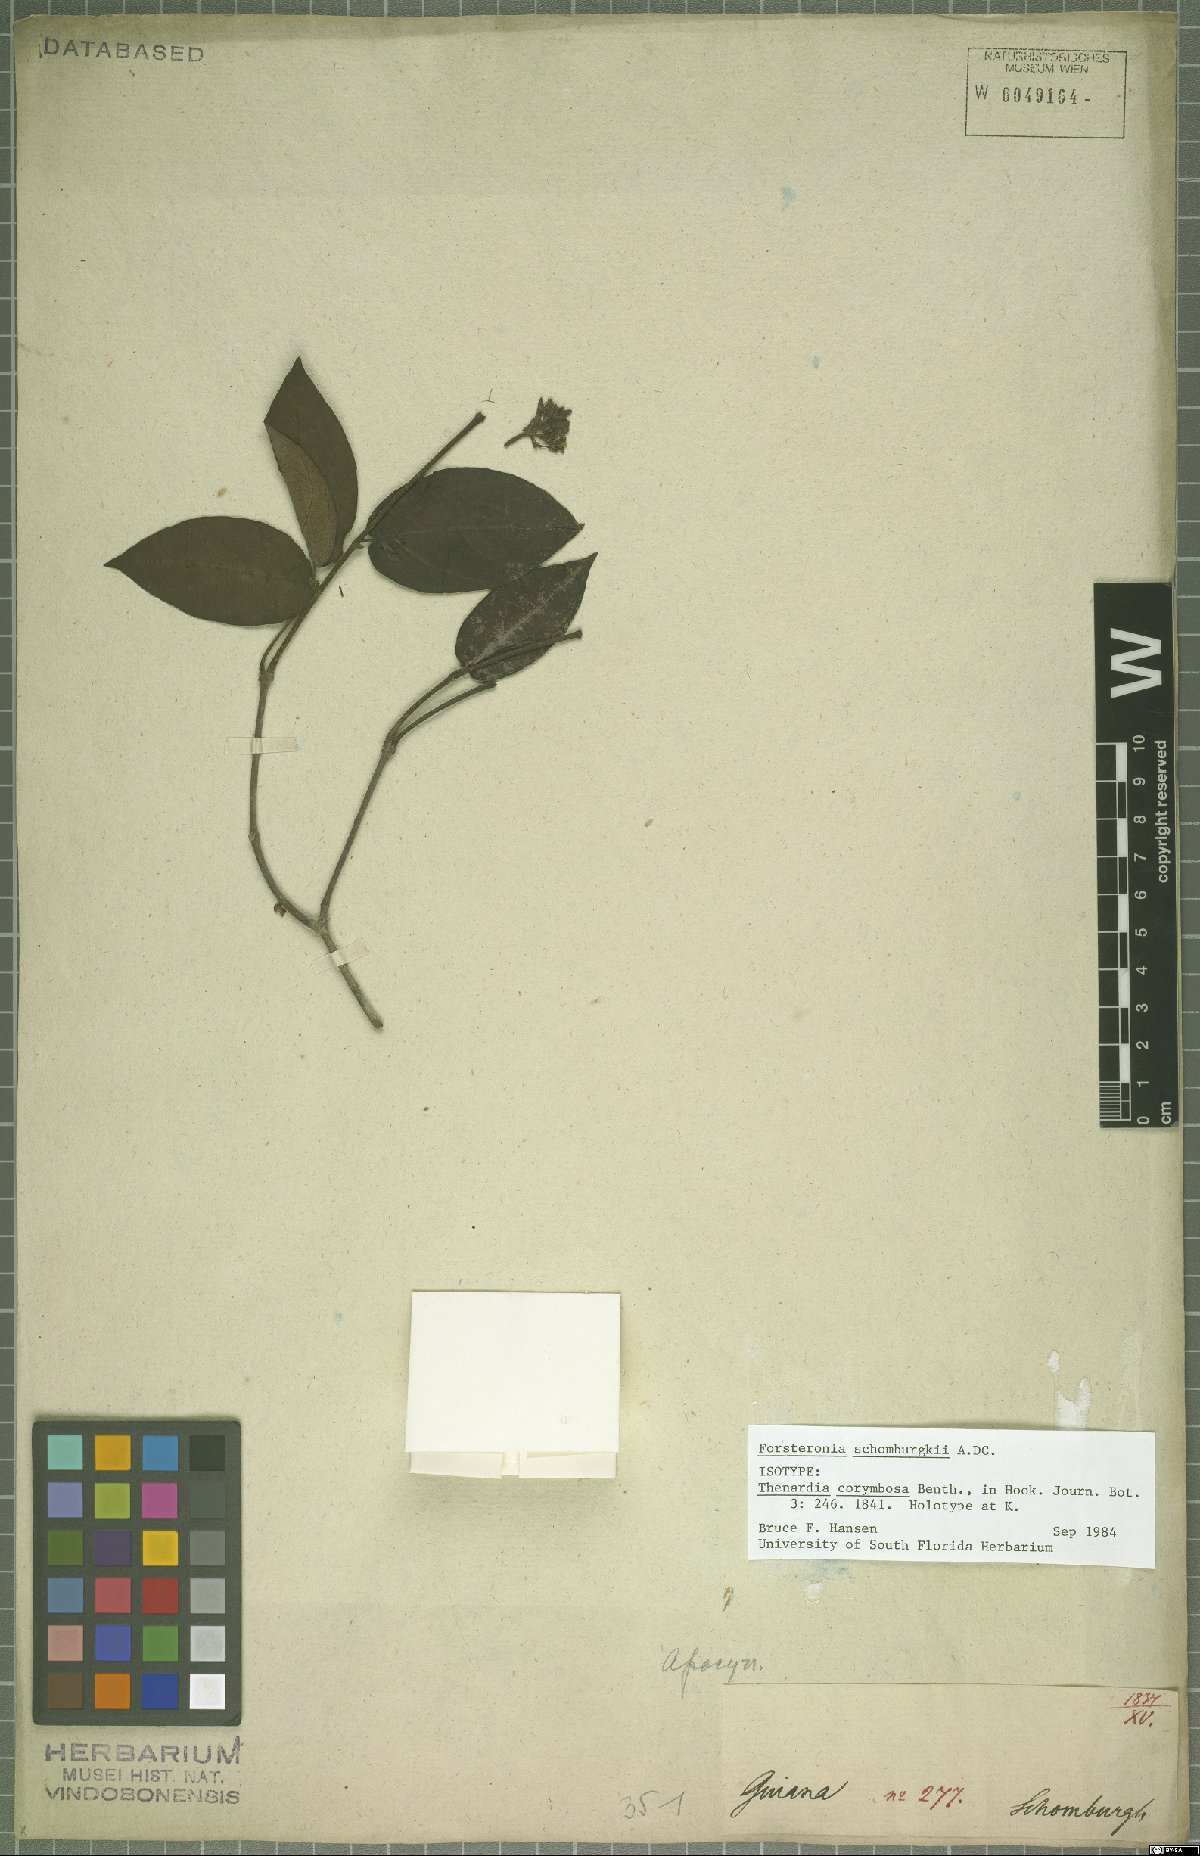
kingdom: Plantae
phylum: Tracheophyta
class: Magnoliopsida
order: Gentianales
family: Apocynaceae
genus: Forsteronia
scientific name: Forsteronia schomburgkii
